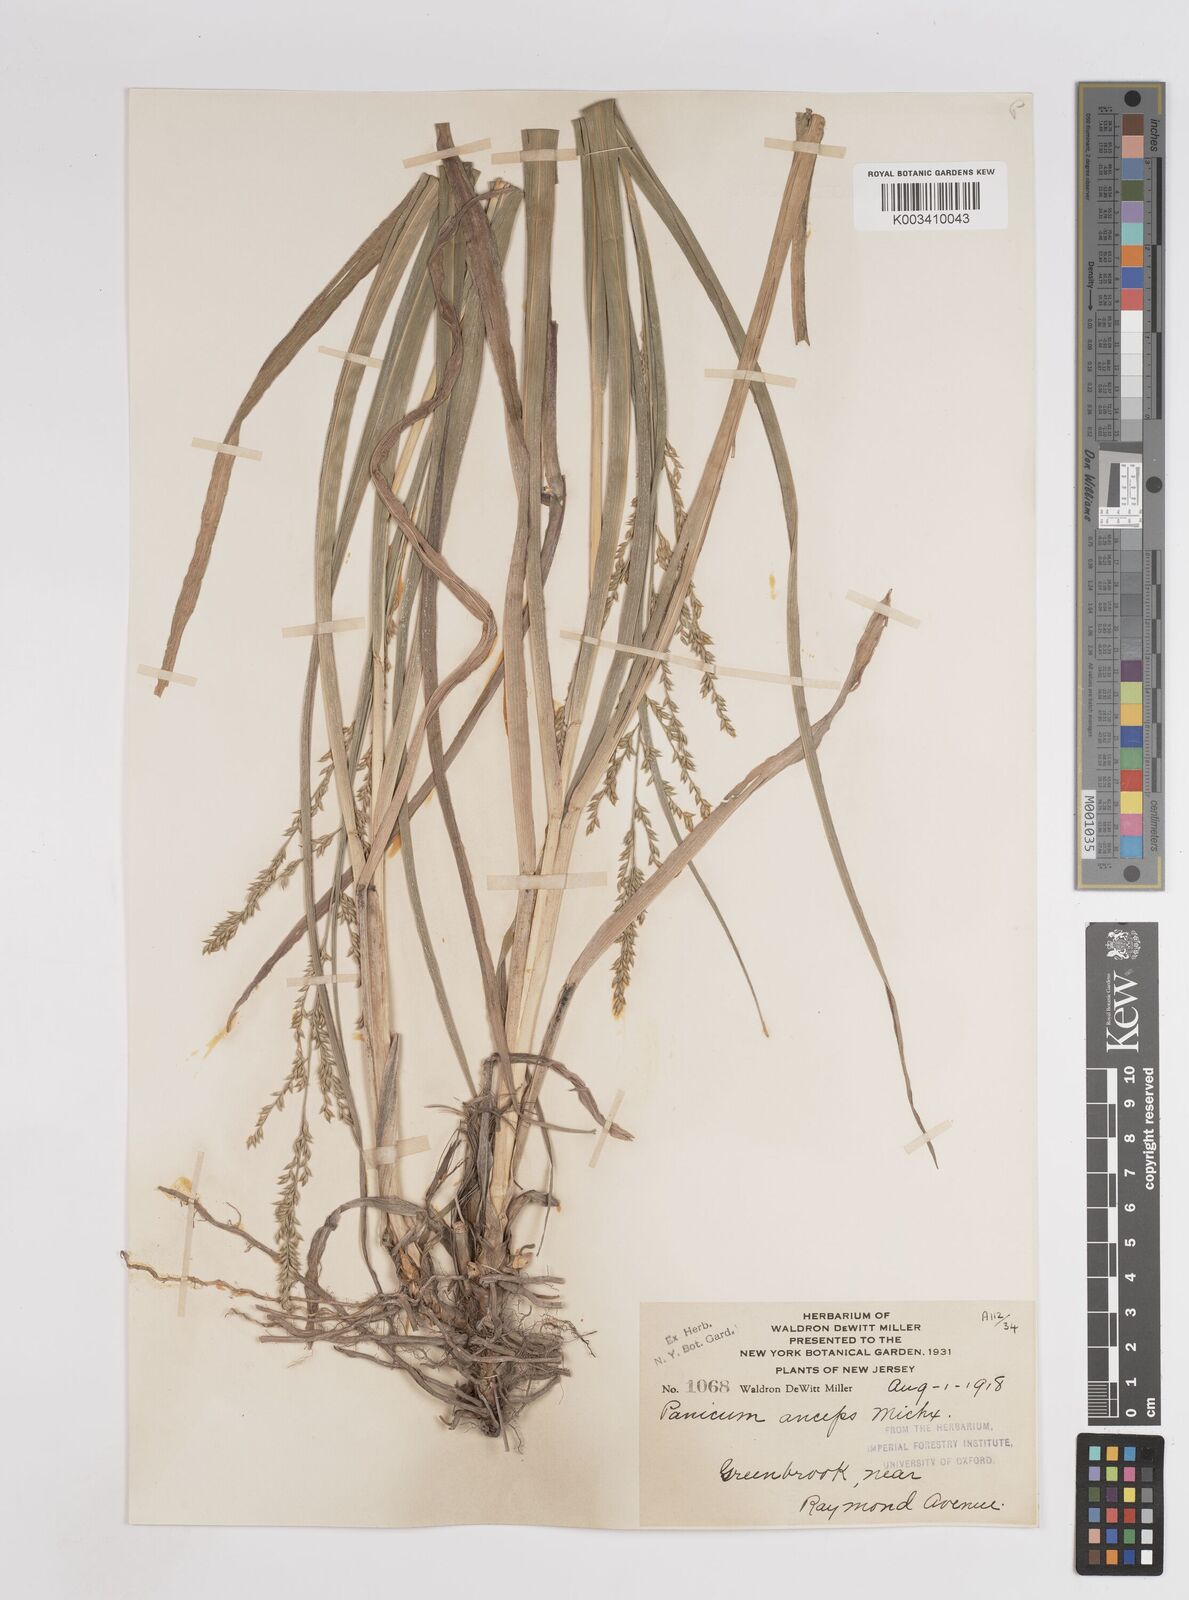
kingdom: Plantae
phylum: Tracheophyta
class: Liliopsida
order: Poales
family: Poaceae
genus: Coleataenia
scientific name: Coleataenia anceps
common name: Beaked panic grass
